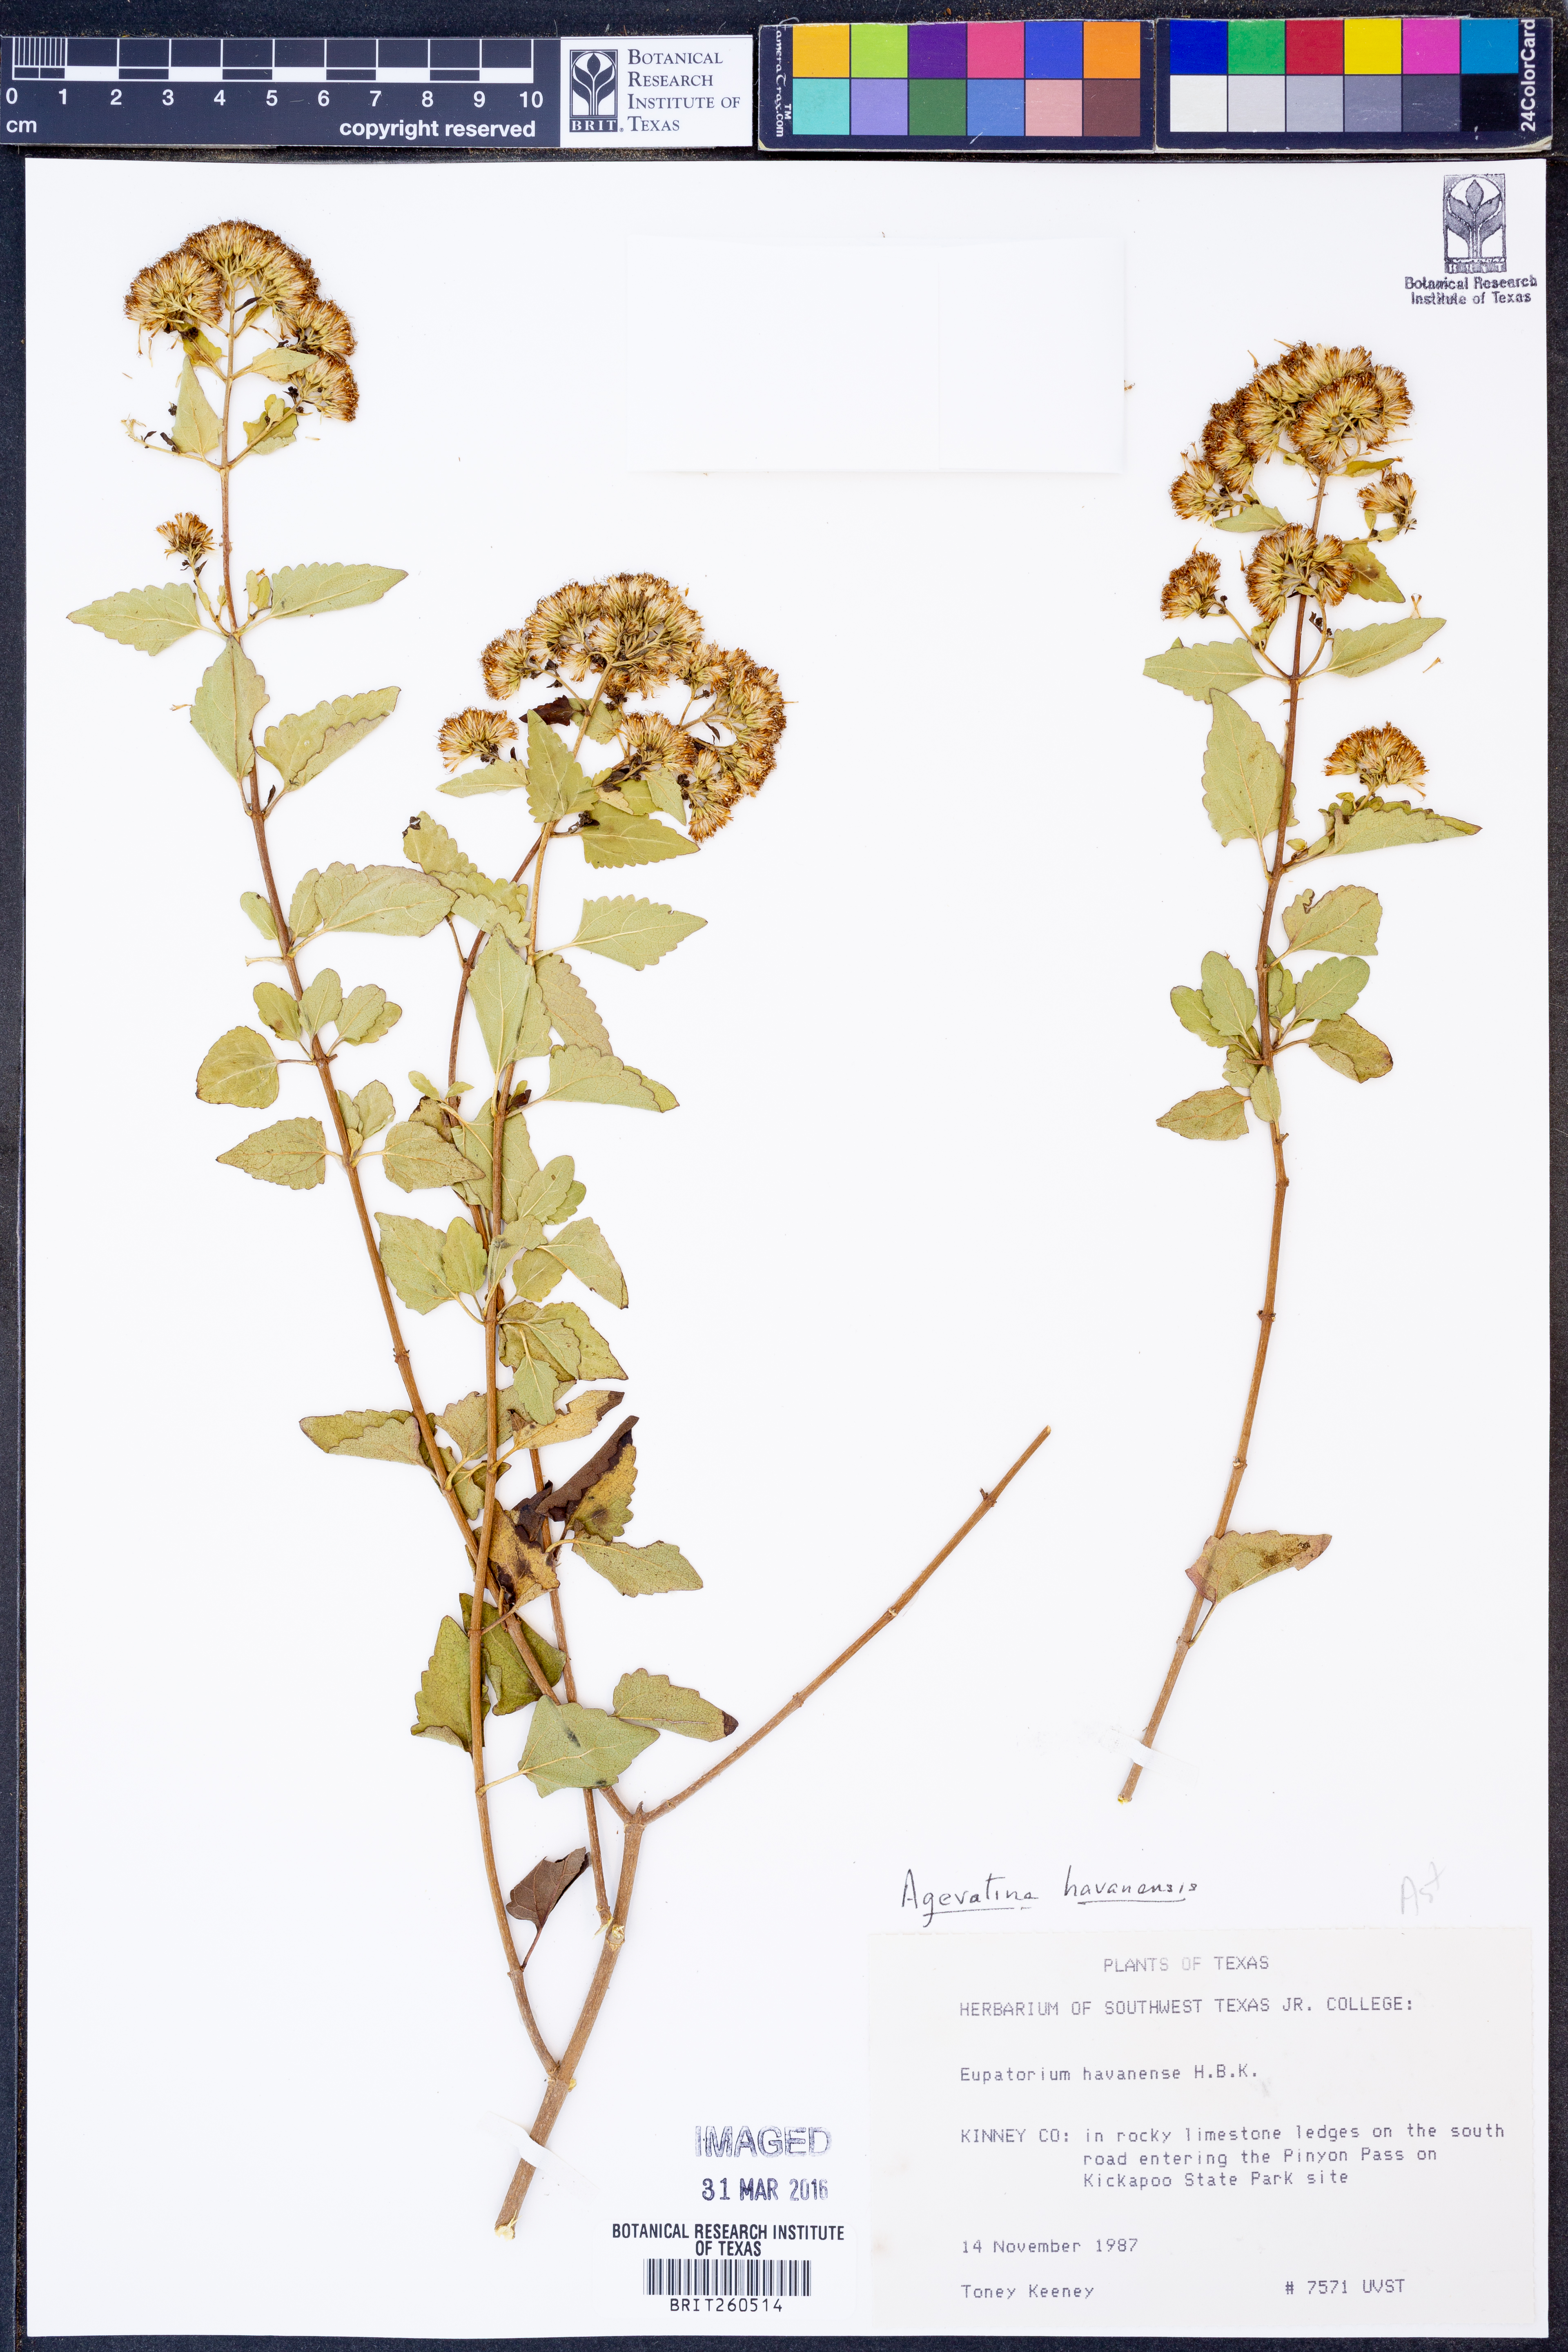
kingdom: Plantae
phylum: Tracheophyta
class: Magnoliopsida
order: Asterales
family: Asteraceae
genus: Ageratina
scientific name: Ageratina havanensis
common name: Havana snakeroot
